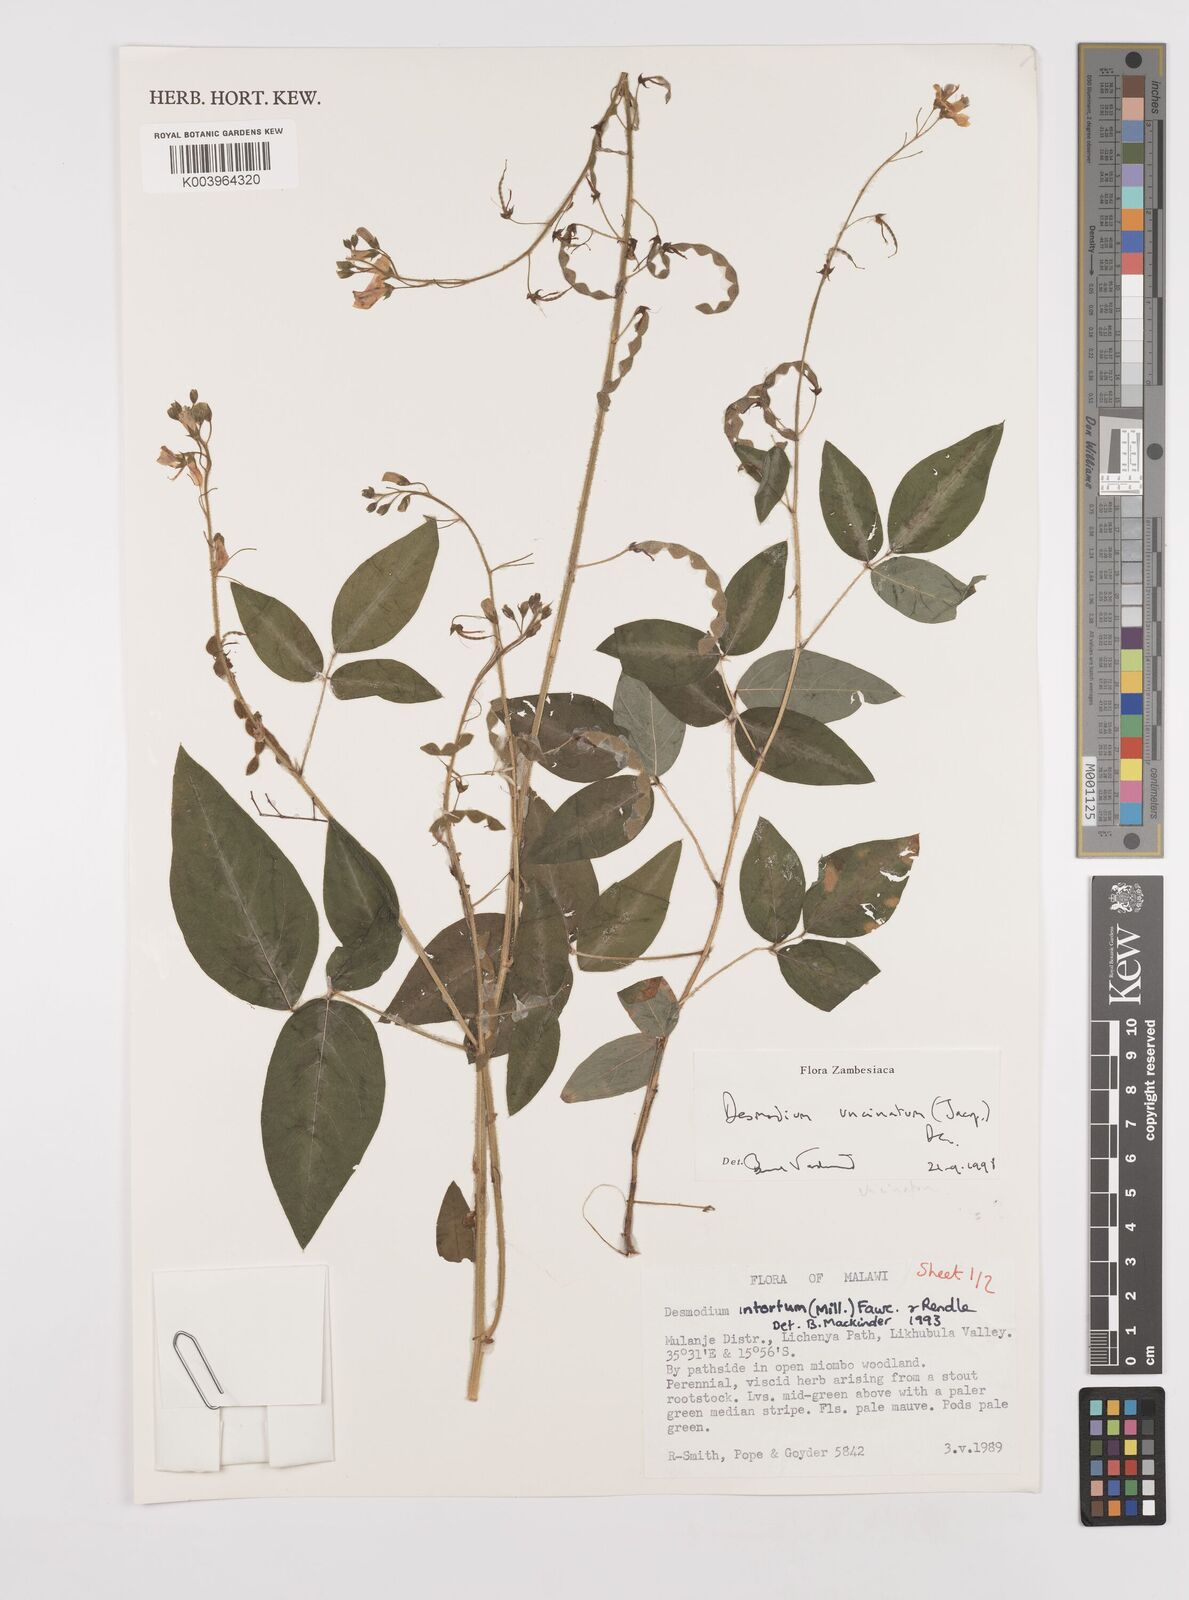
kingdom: Plantae
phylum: Tracheophyta
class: Magnoliopsida
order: Fabales
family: Fabaceae
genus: Desmodium
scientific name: Desmodium uncinatum
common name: Silverleaf desmodium
